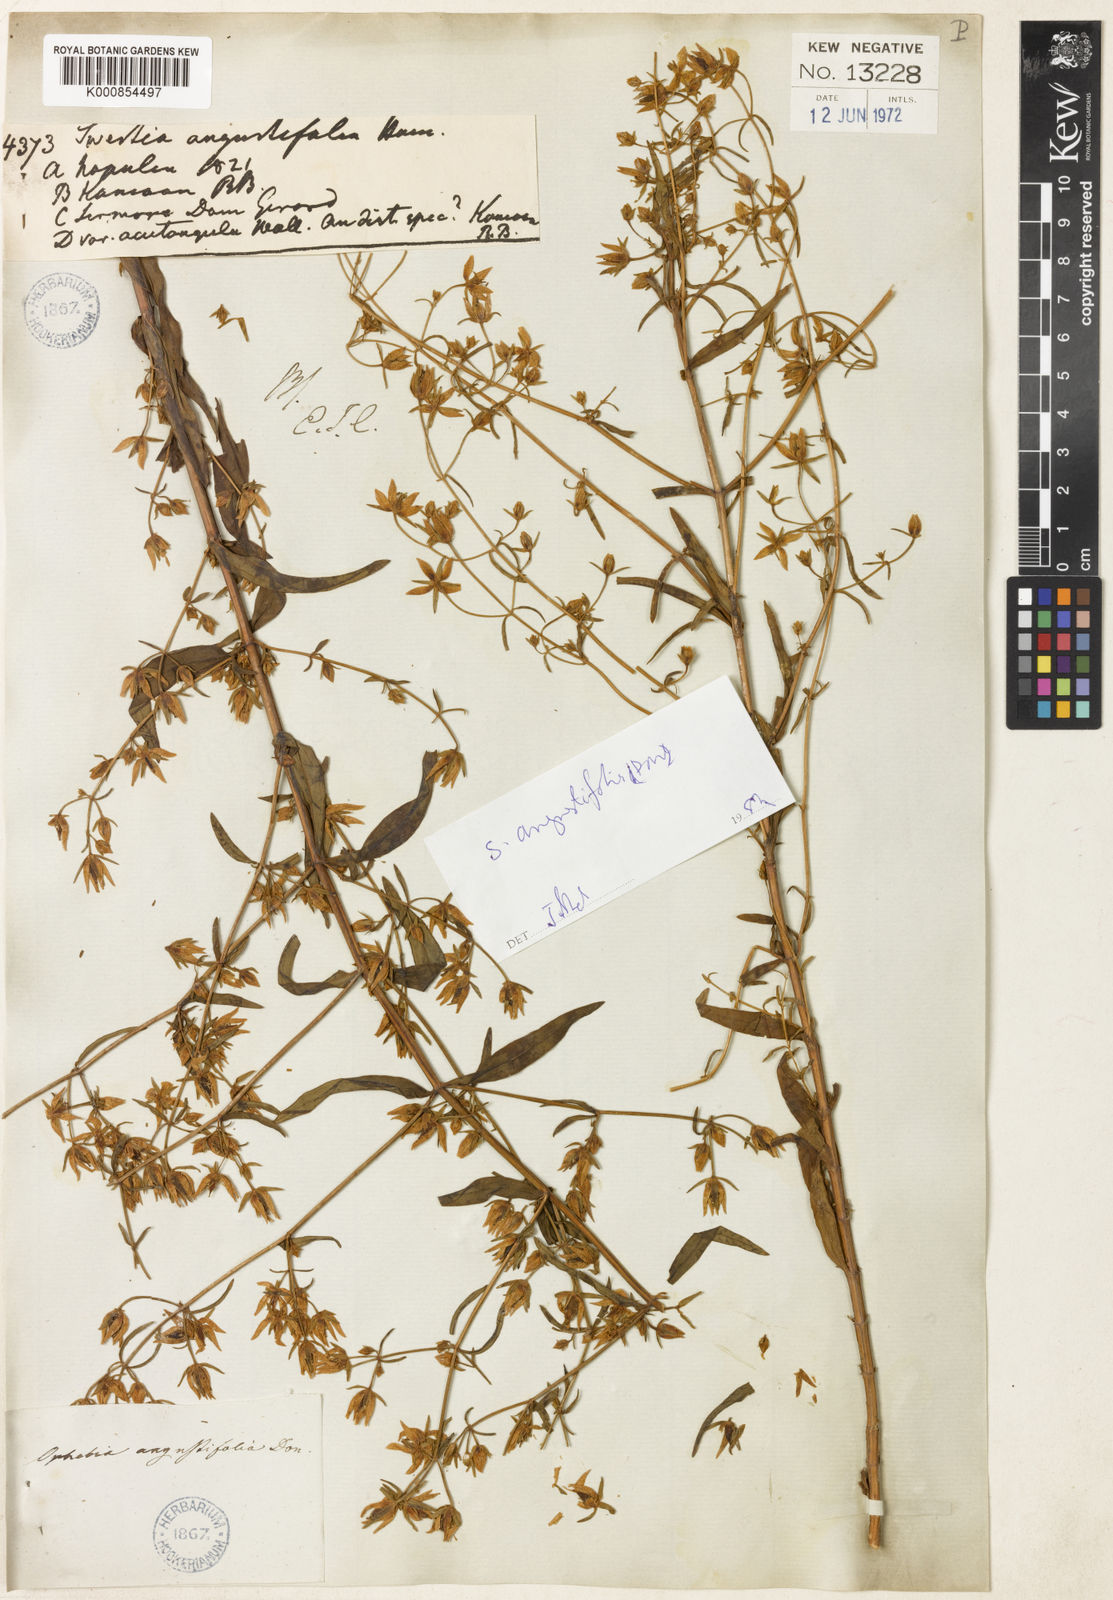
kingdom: Plantae
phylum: Tracheophyta
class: Magnoliopsida
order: Gentianales
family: Gentianaceae
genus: Swertia
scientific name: Swertia angustifolia
